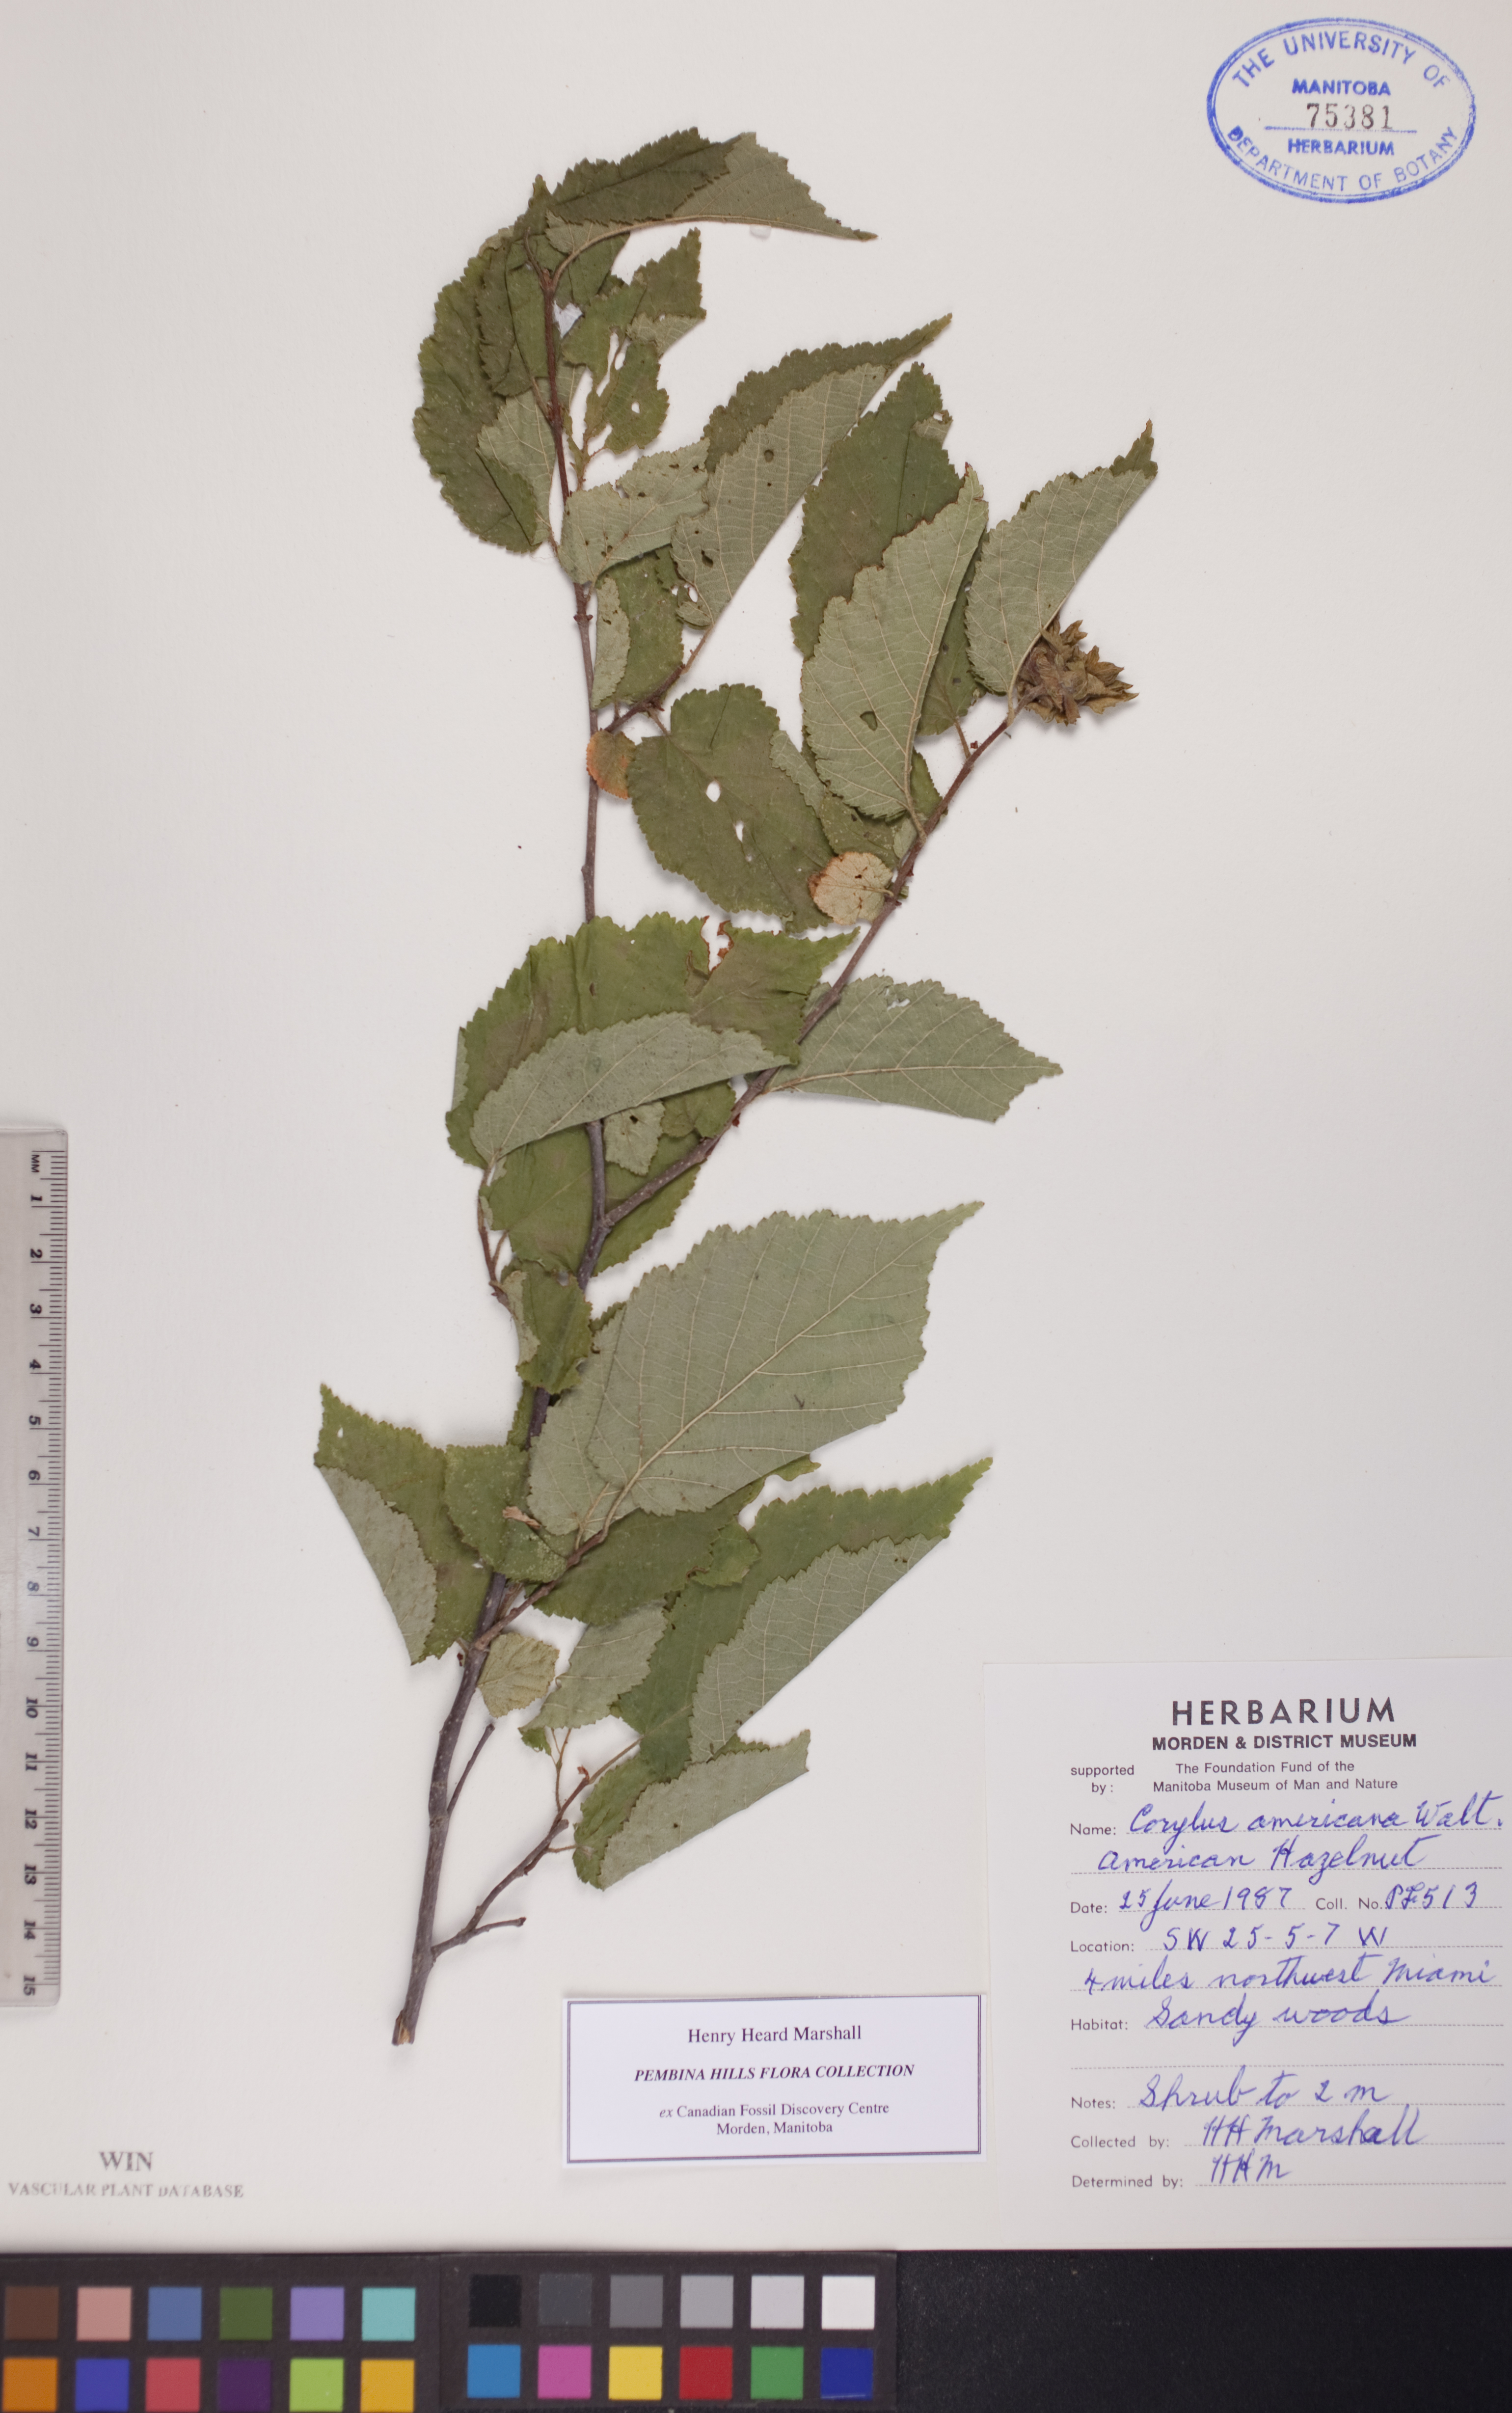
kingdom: Plantae
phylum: Tracheophyta
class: Magnoliopsida
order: Fagales
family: Betulaceae
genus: Corylus
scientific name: Corylus americana
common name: American hazel
